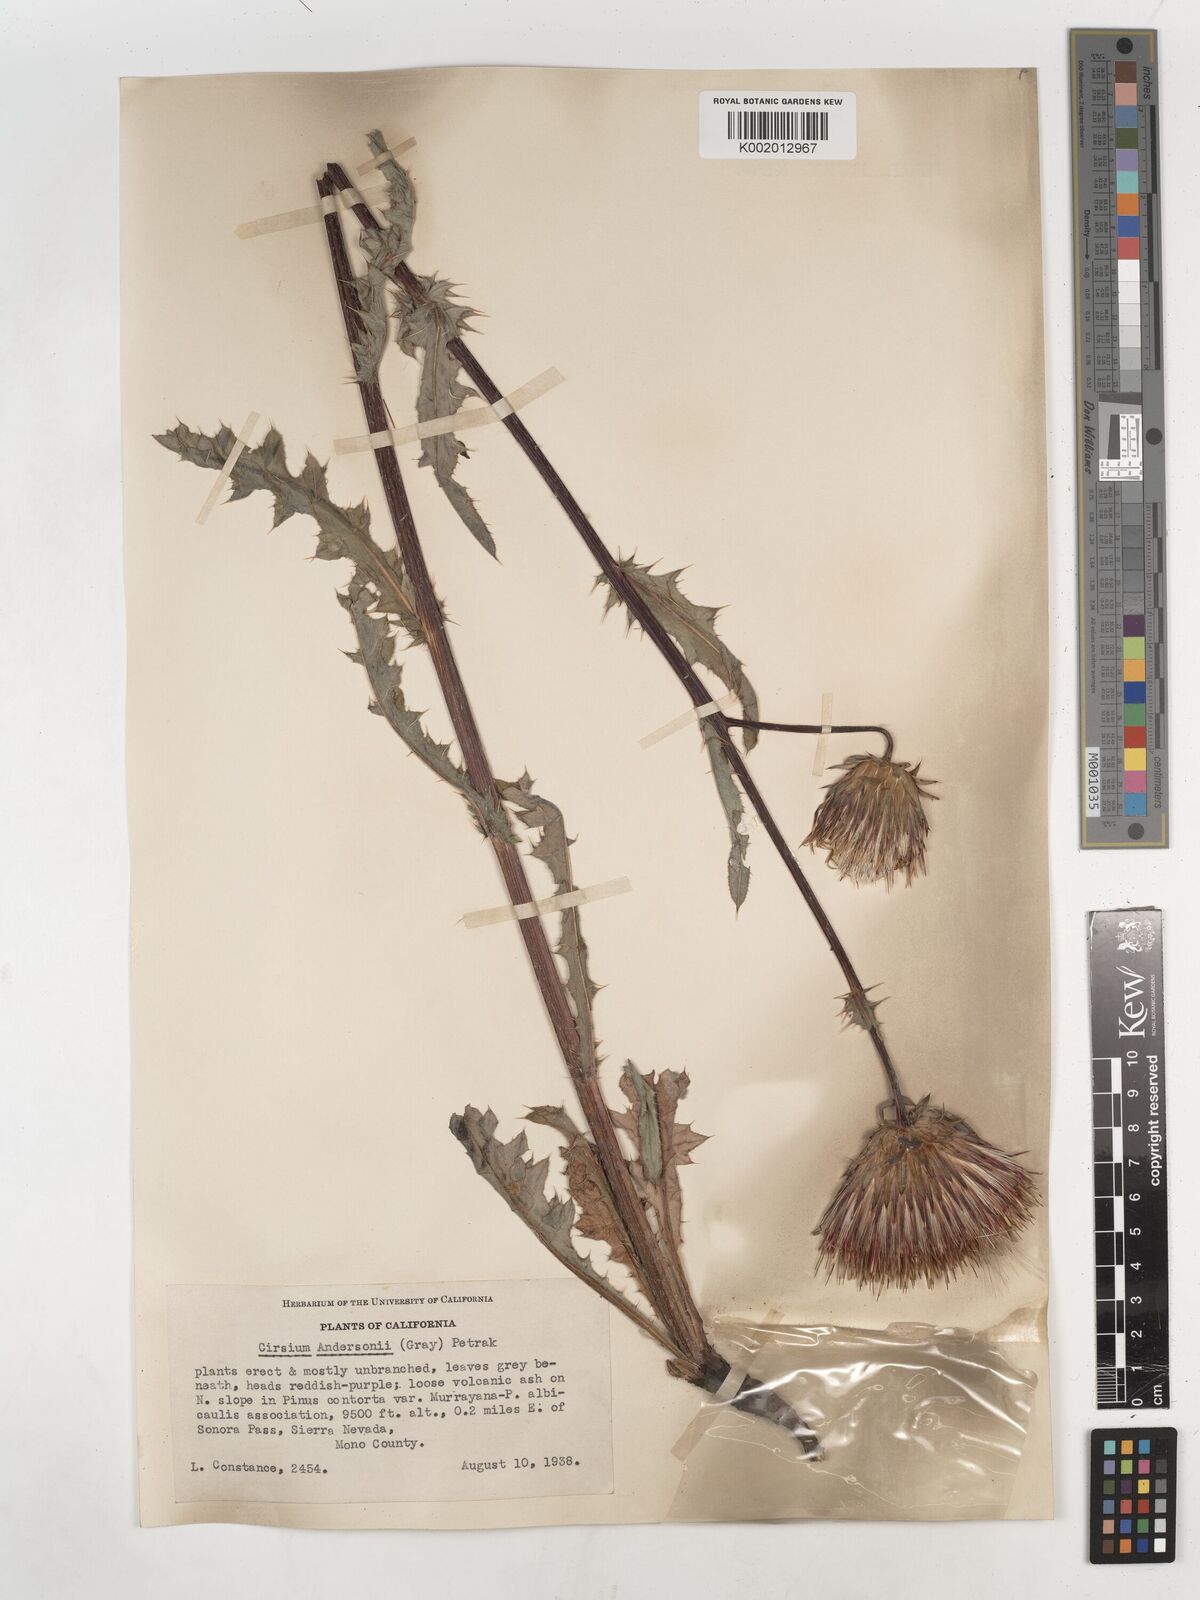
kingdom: Plantae
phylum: Tracheophyta
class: Magnoliopsida
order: Asterales
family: Asteraceae
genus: Cirsium
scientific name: Cirsium
